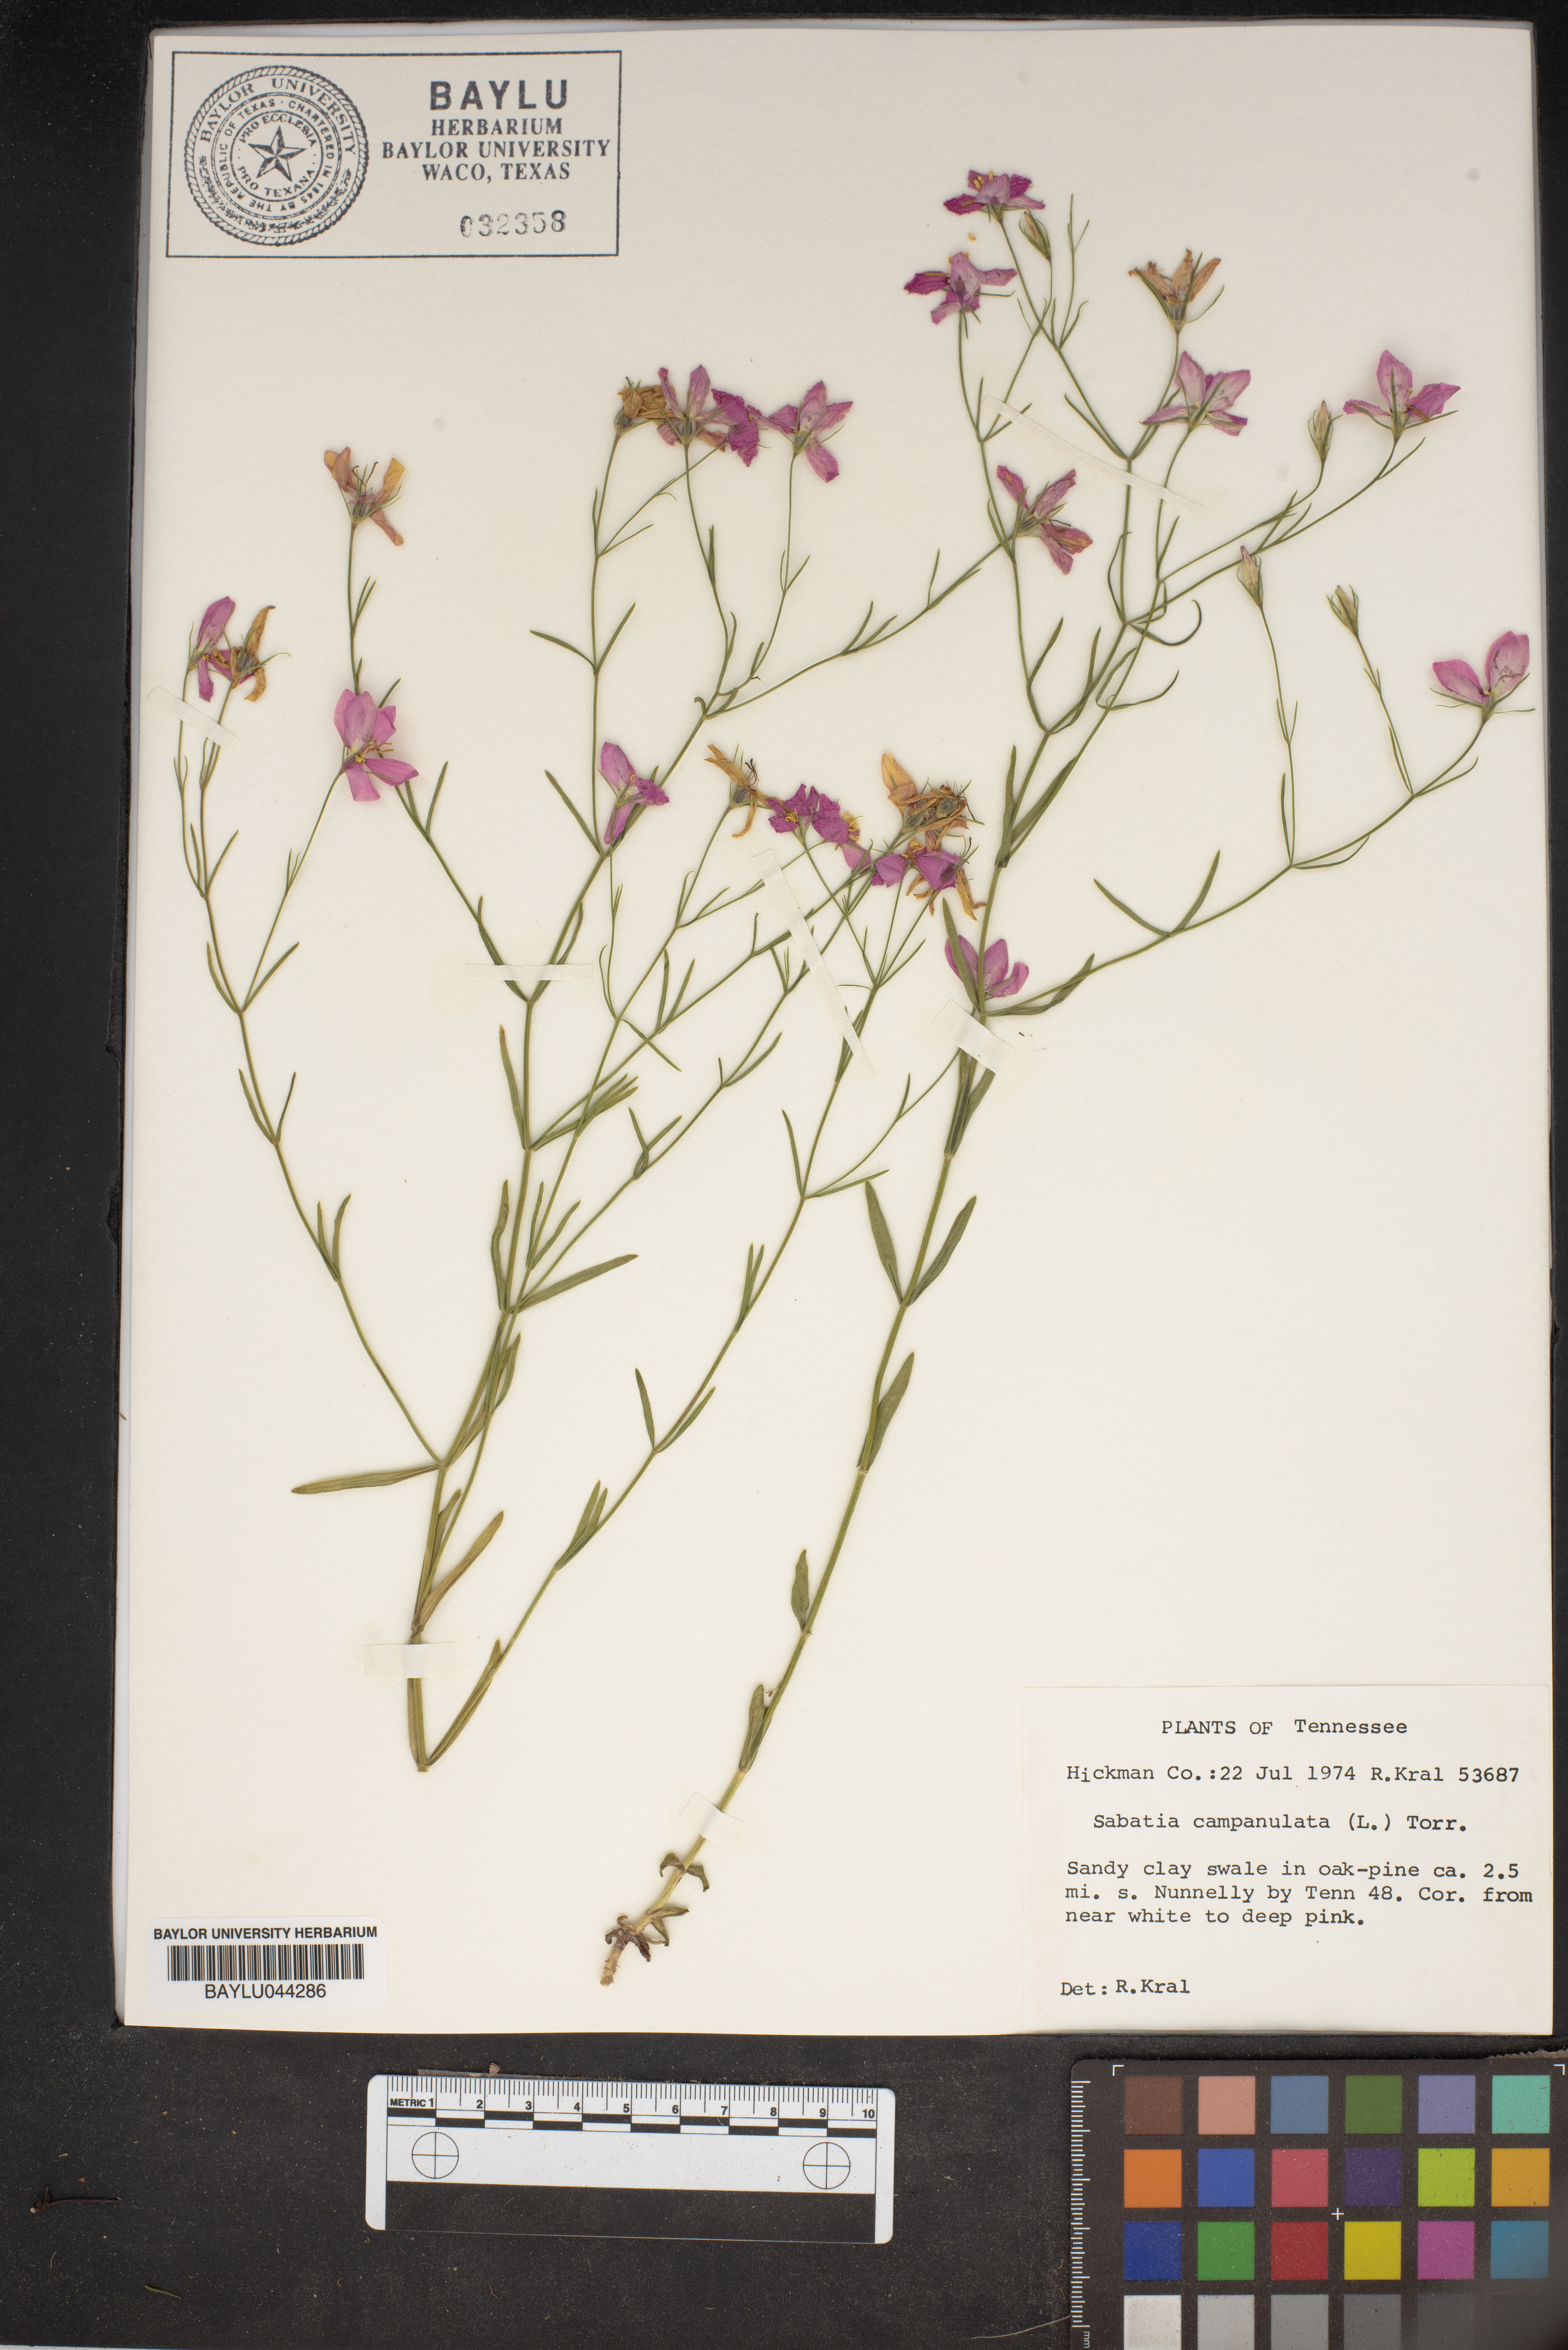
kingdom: Plantae
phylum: Tracheophyta
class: Magnoliopsida
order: Gentianales
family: Gentianaceae
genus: Sabatia
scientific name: Sabatia campanulata
